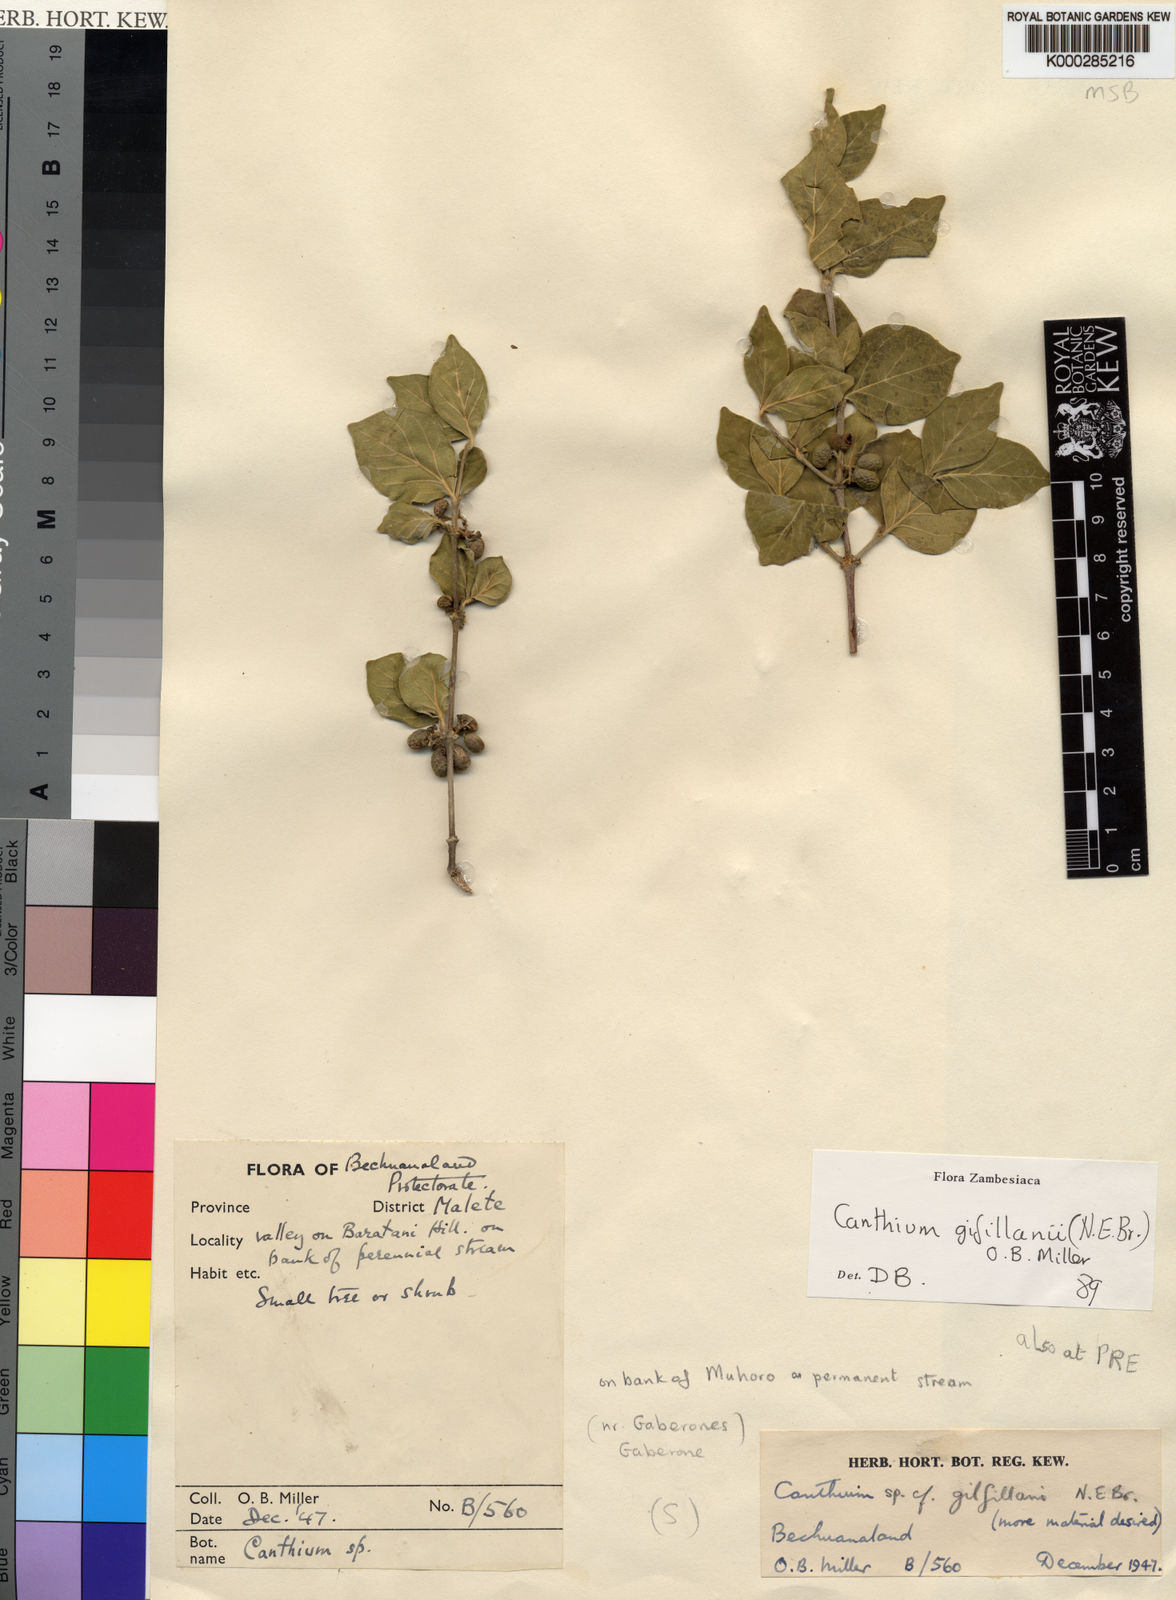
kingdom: Plantae
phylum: Tracheophyta
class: Magnoliopsida
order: Gentianales
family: Rubiaceae
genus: Afrocanthium
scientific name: Afrocanthium gilfillanii
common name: Velvet rock-alder
